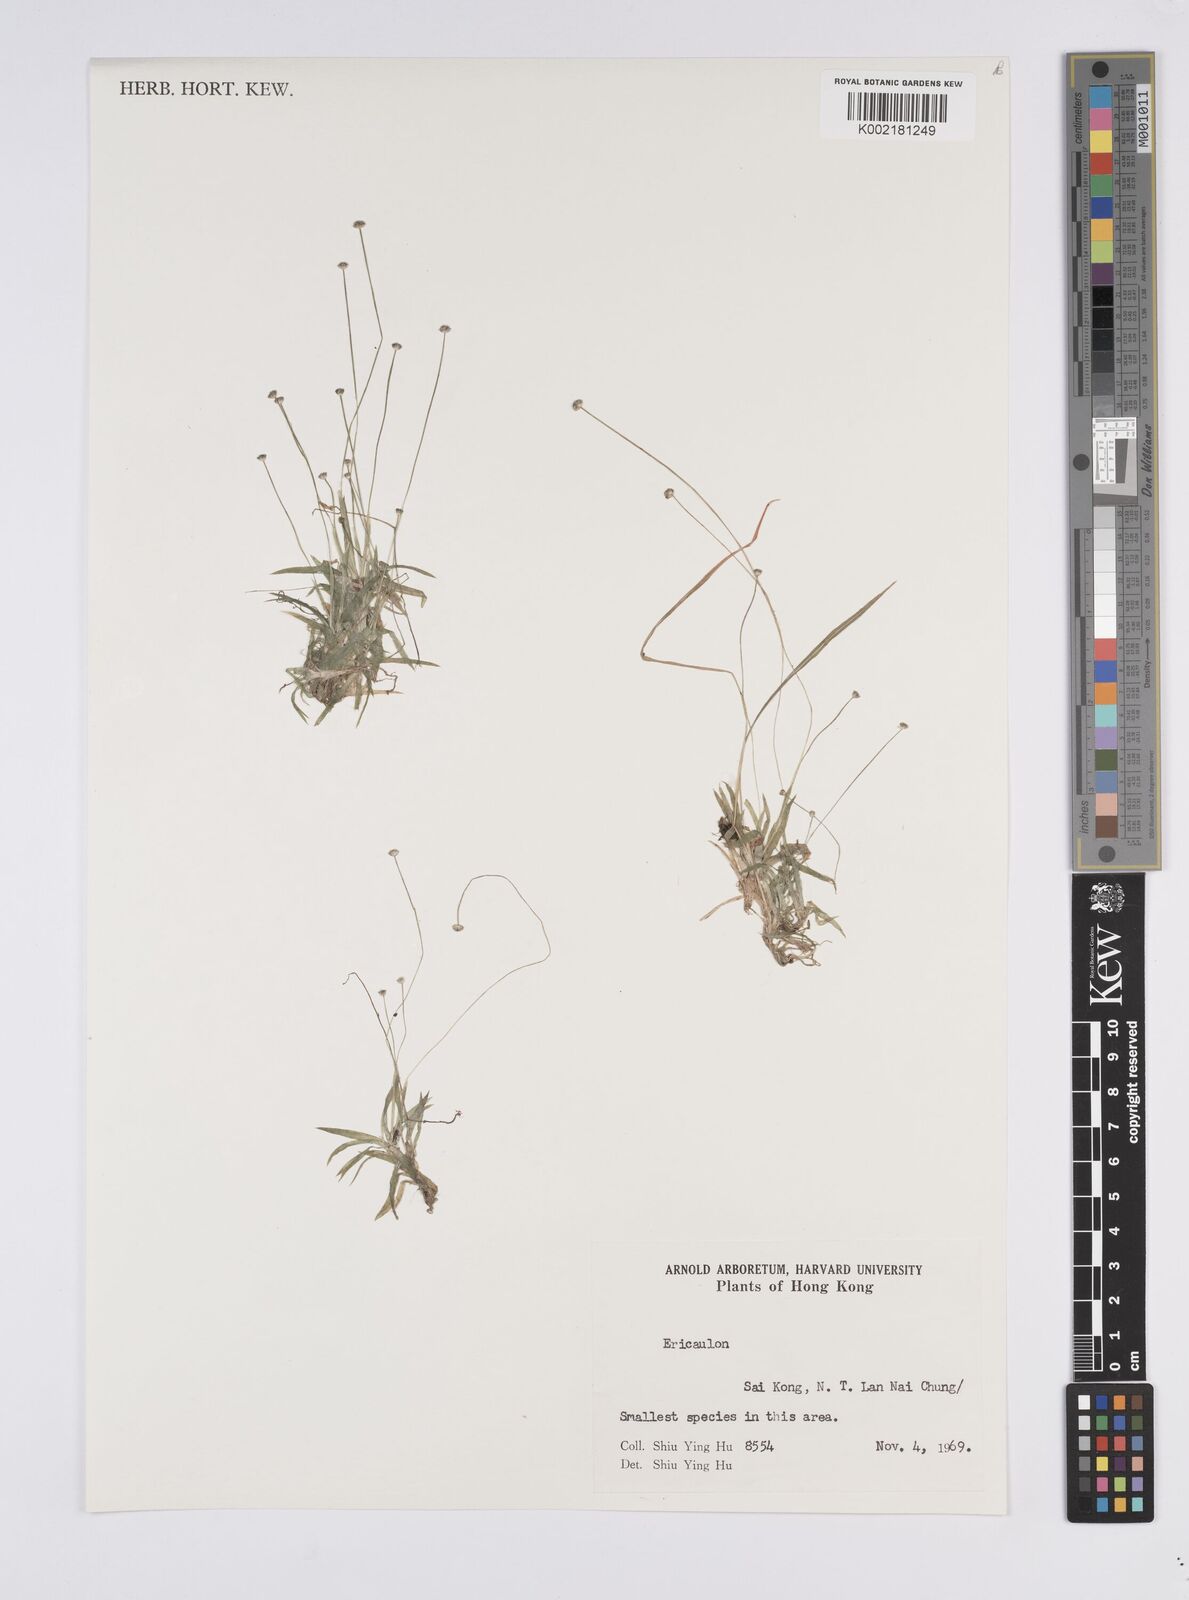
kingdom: Plantae
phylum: Tracheophyta
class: Liliopsida
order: Poales
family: Eriocaulaceae
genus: Eriocaulon
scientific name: Eriocaulon
